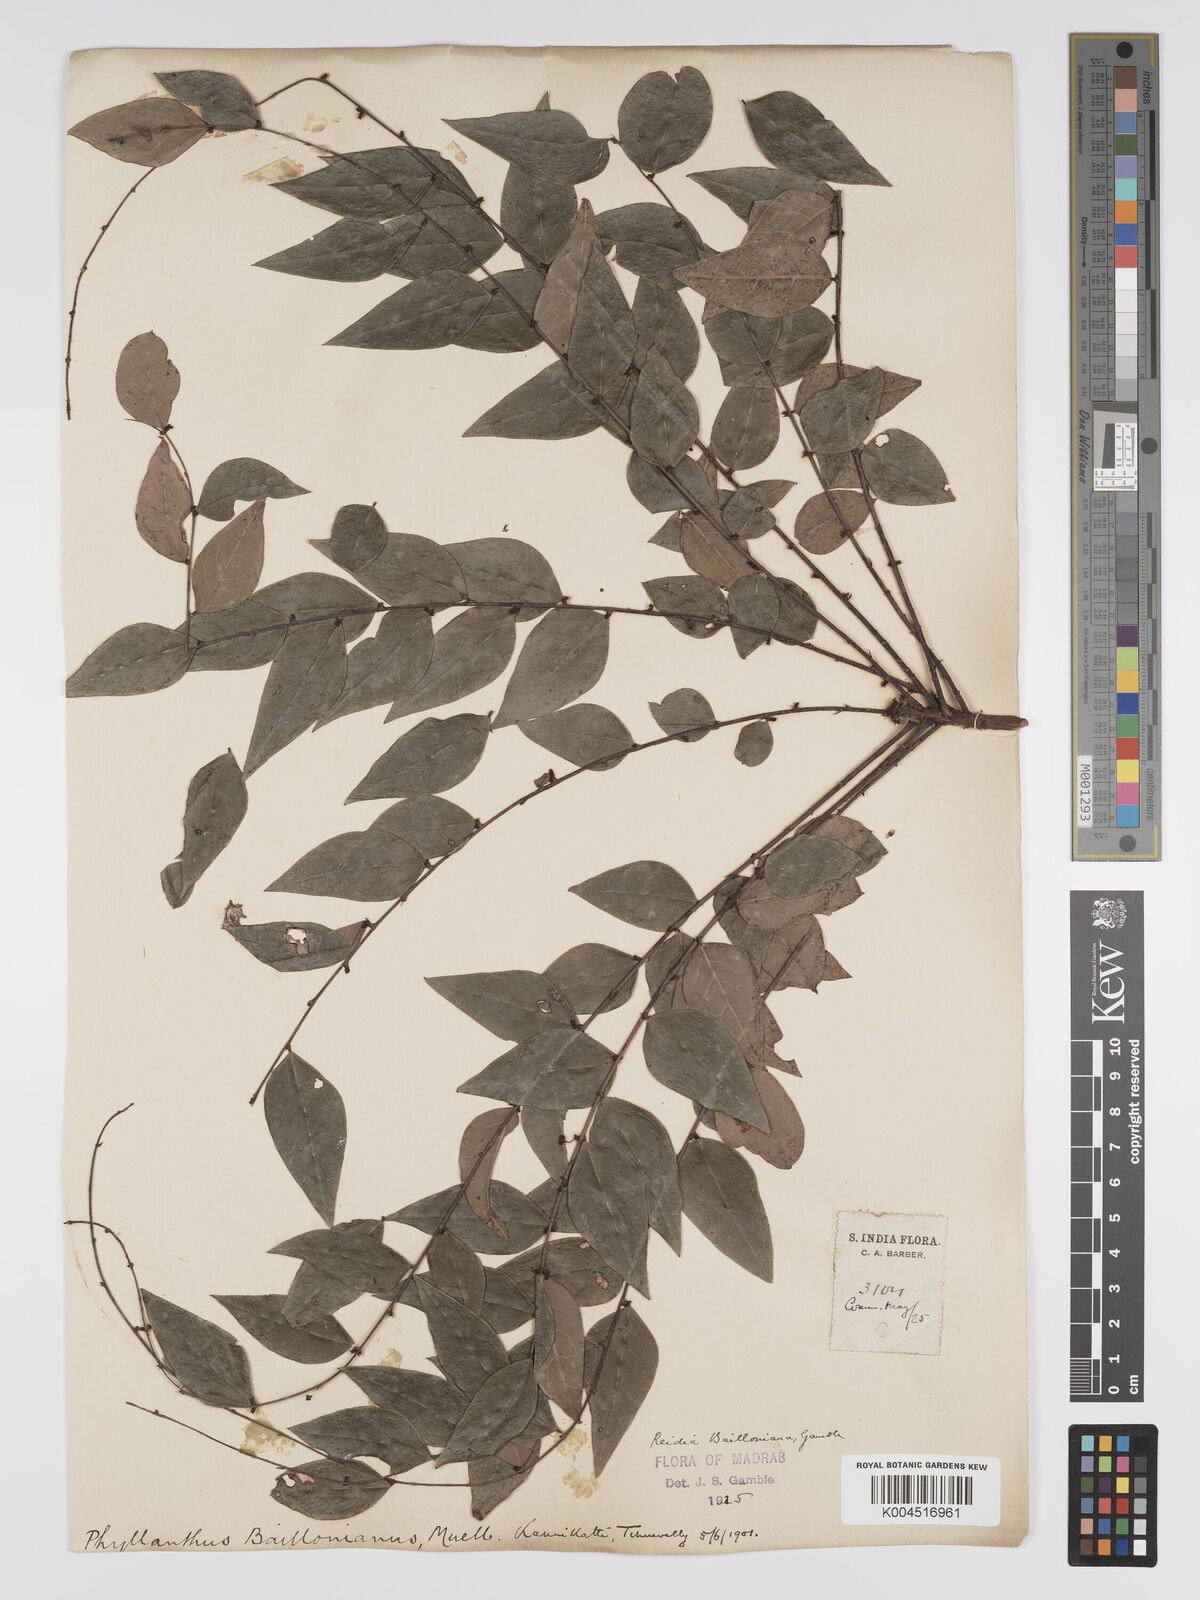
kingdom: Plantae
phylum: Tracheophyta
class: Magnoliopsida
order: Malpighiales
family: Phyllanthaceae
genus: Phyllanthus
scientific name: Phyllanthus baillonianus
